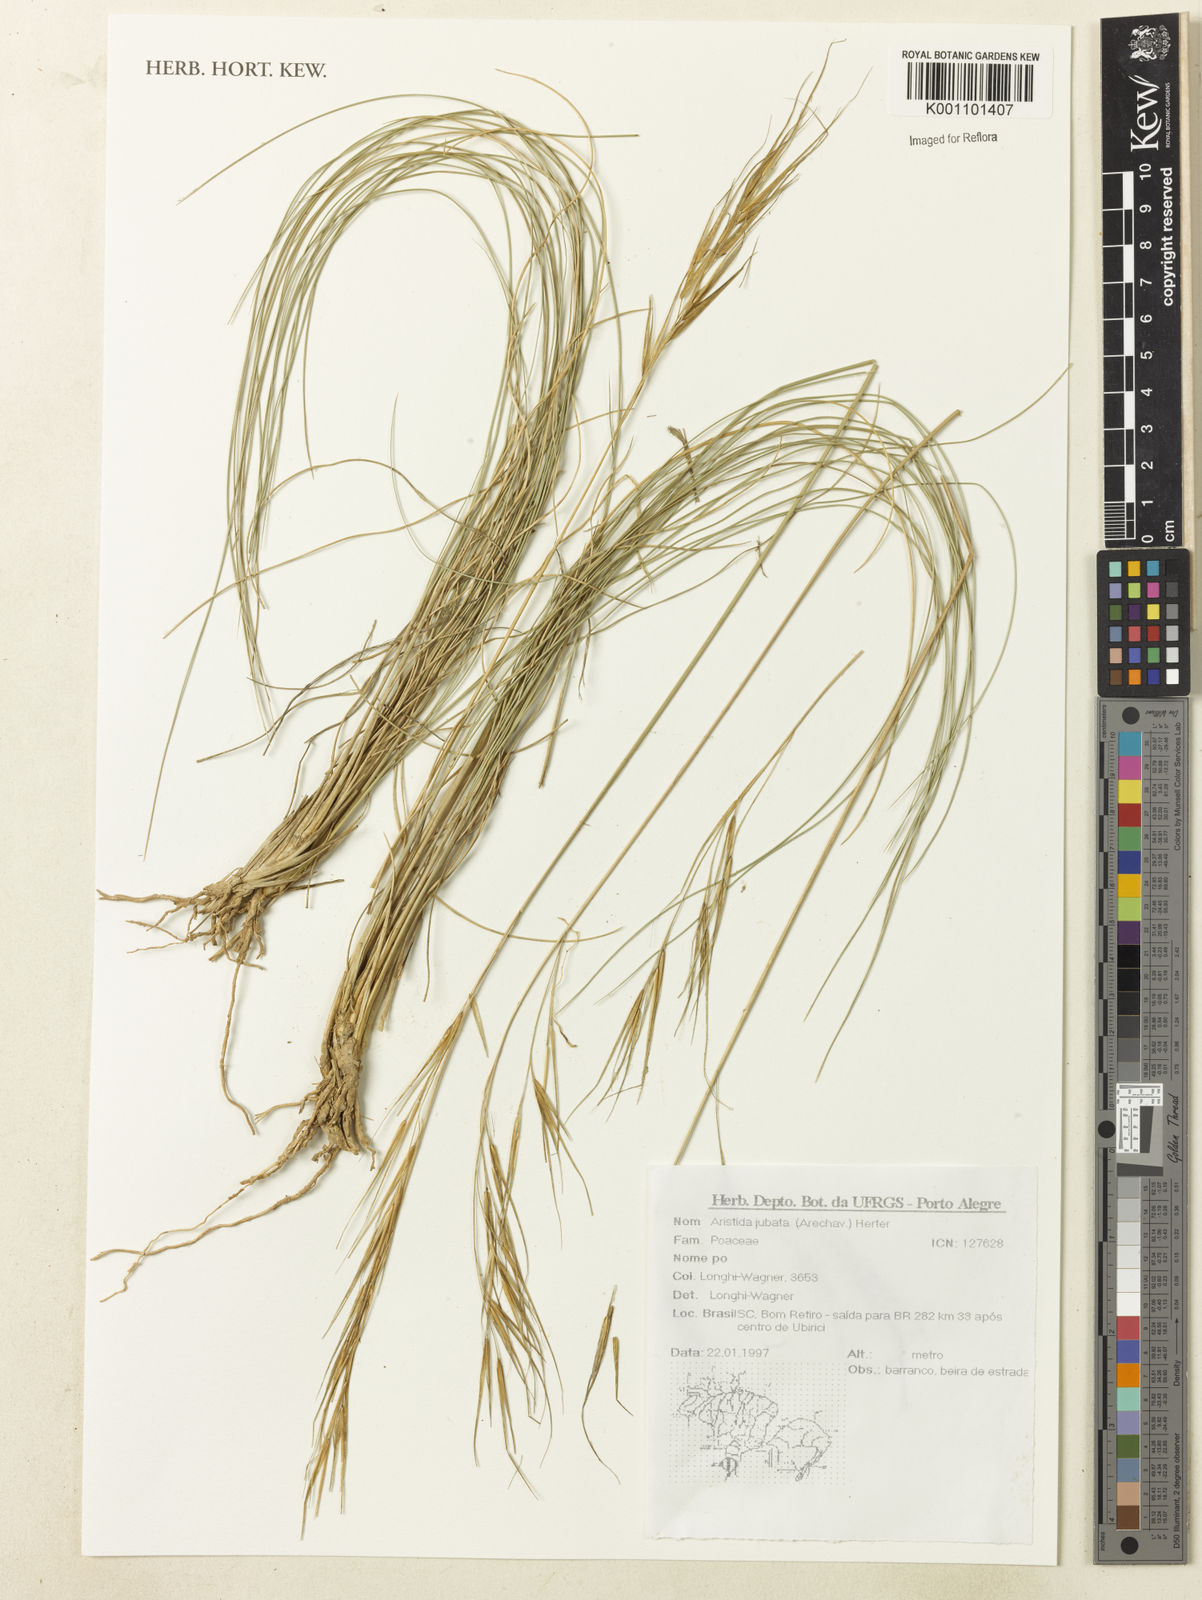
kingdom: Plantae
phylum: Tracheophyta
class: Liliopsida
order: Poales
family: Poaceae
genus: Aristida
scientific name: Aristida jubata
